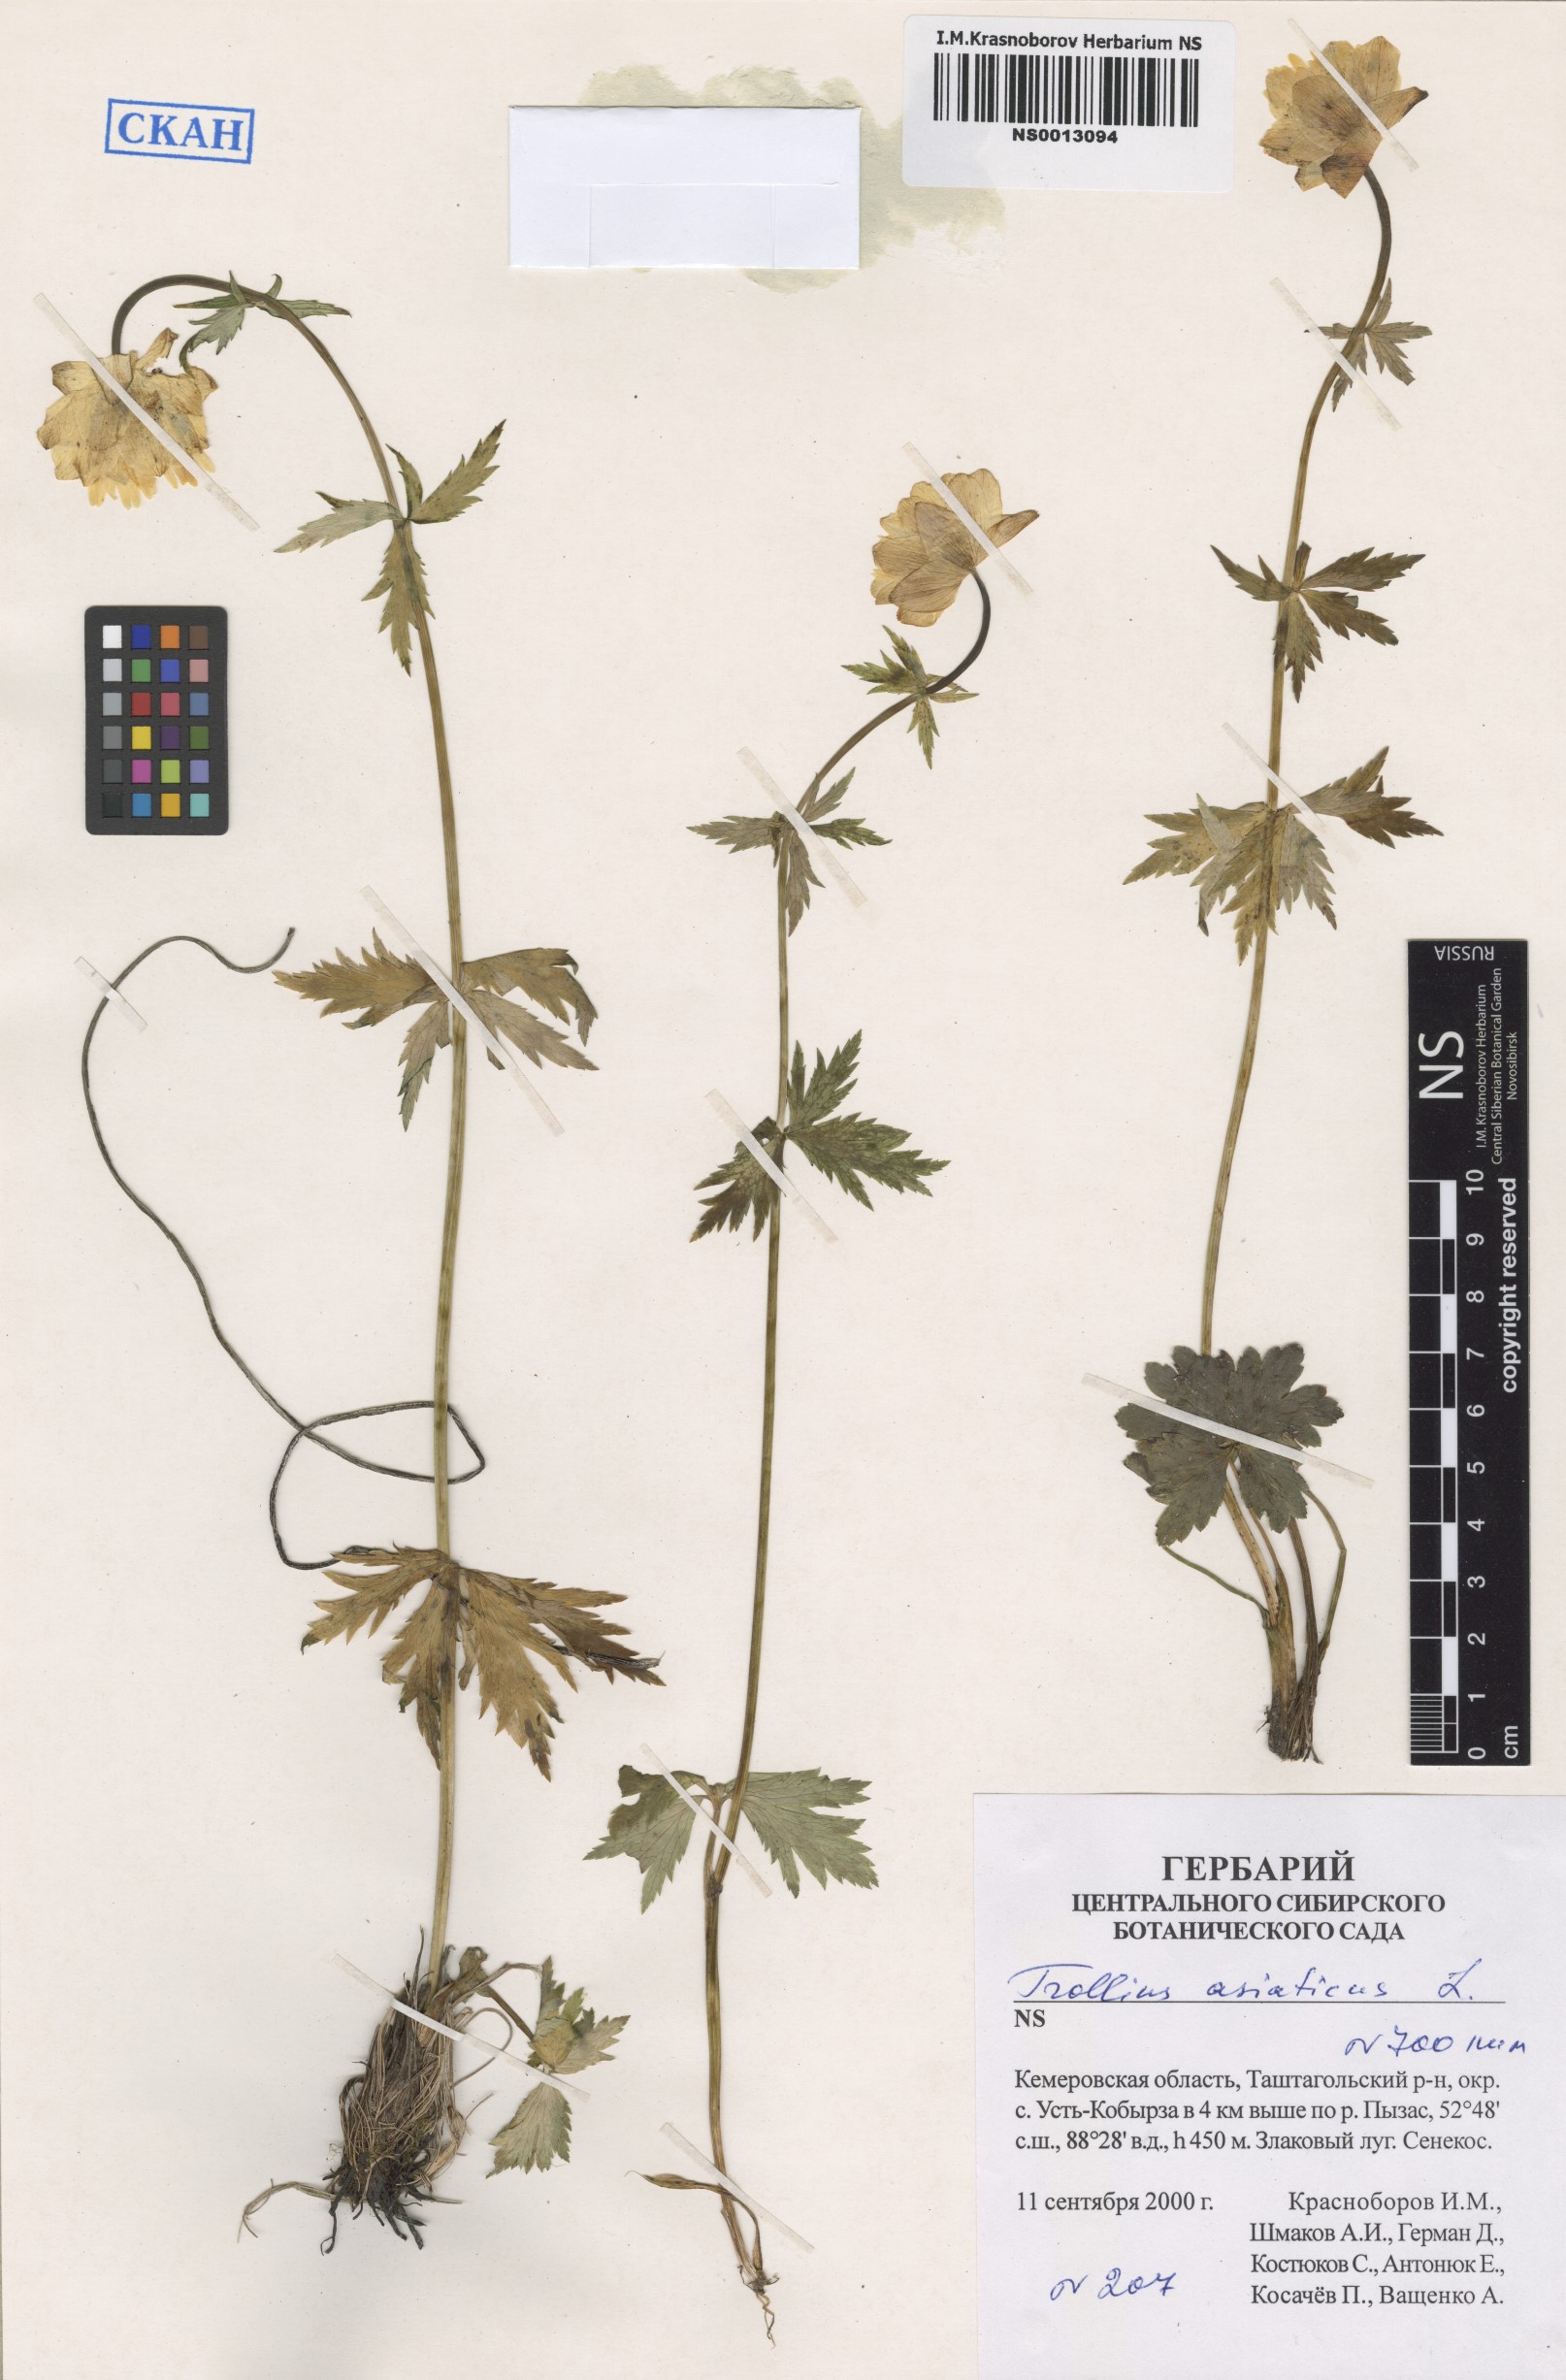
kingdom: Plantae
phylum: Tracheophyta
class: Magnoliopsida
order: Ranunculales
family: Ranunculaceae
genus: Trollius
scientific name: Trollius asiaticus
